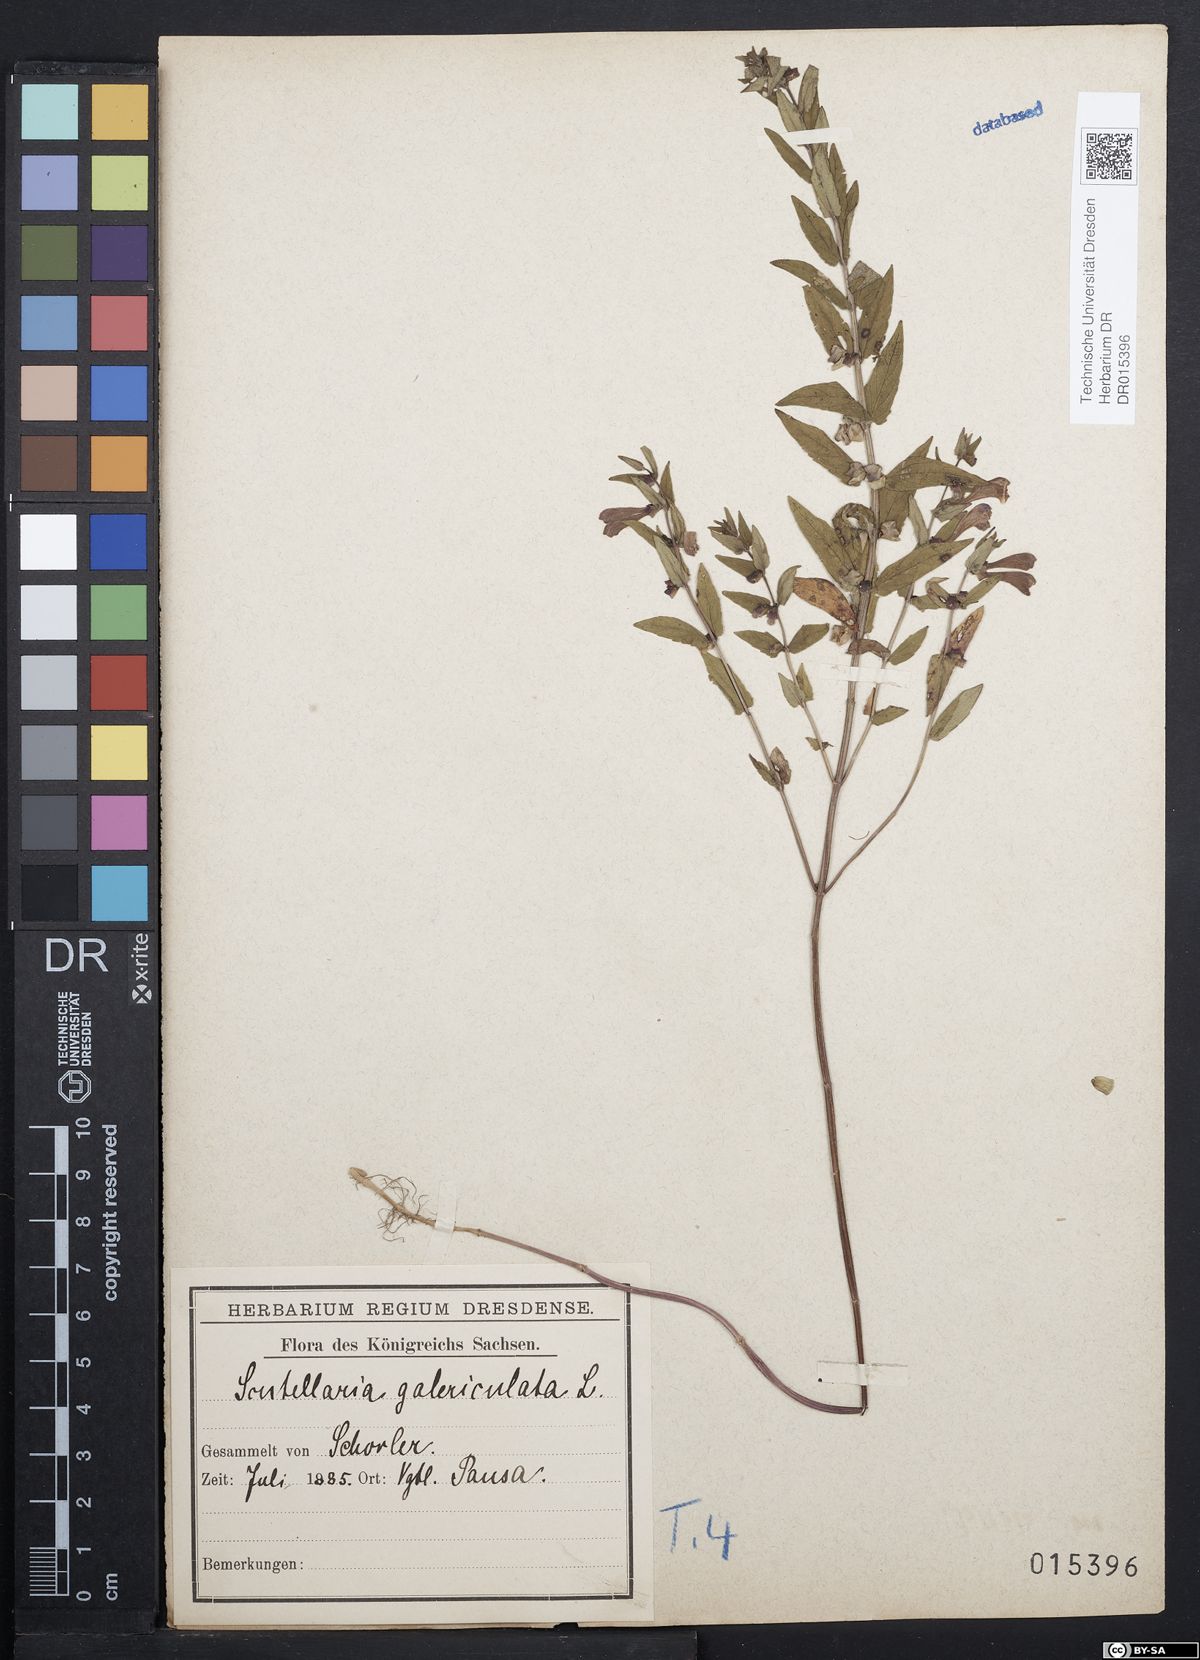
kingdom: Plantae
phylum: Tracheophyta
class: Magnoliopsida
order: Lamiales
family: Lamiaceae
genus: Scutellaria
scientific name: Scutellaria galericulata
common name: Skullcap
